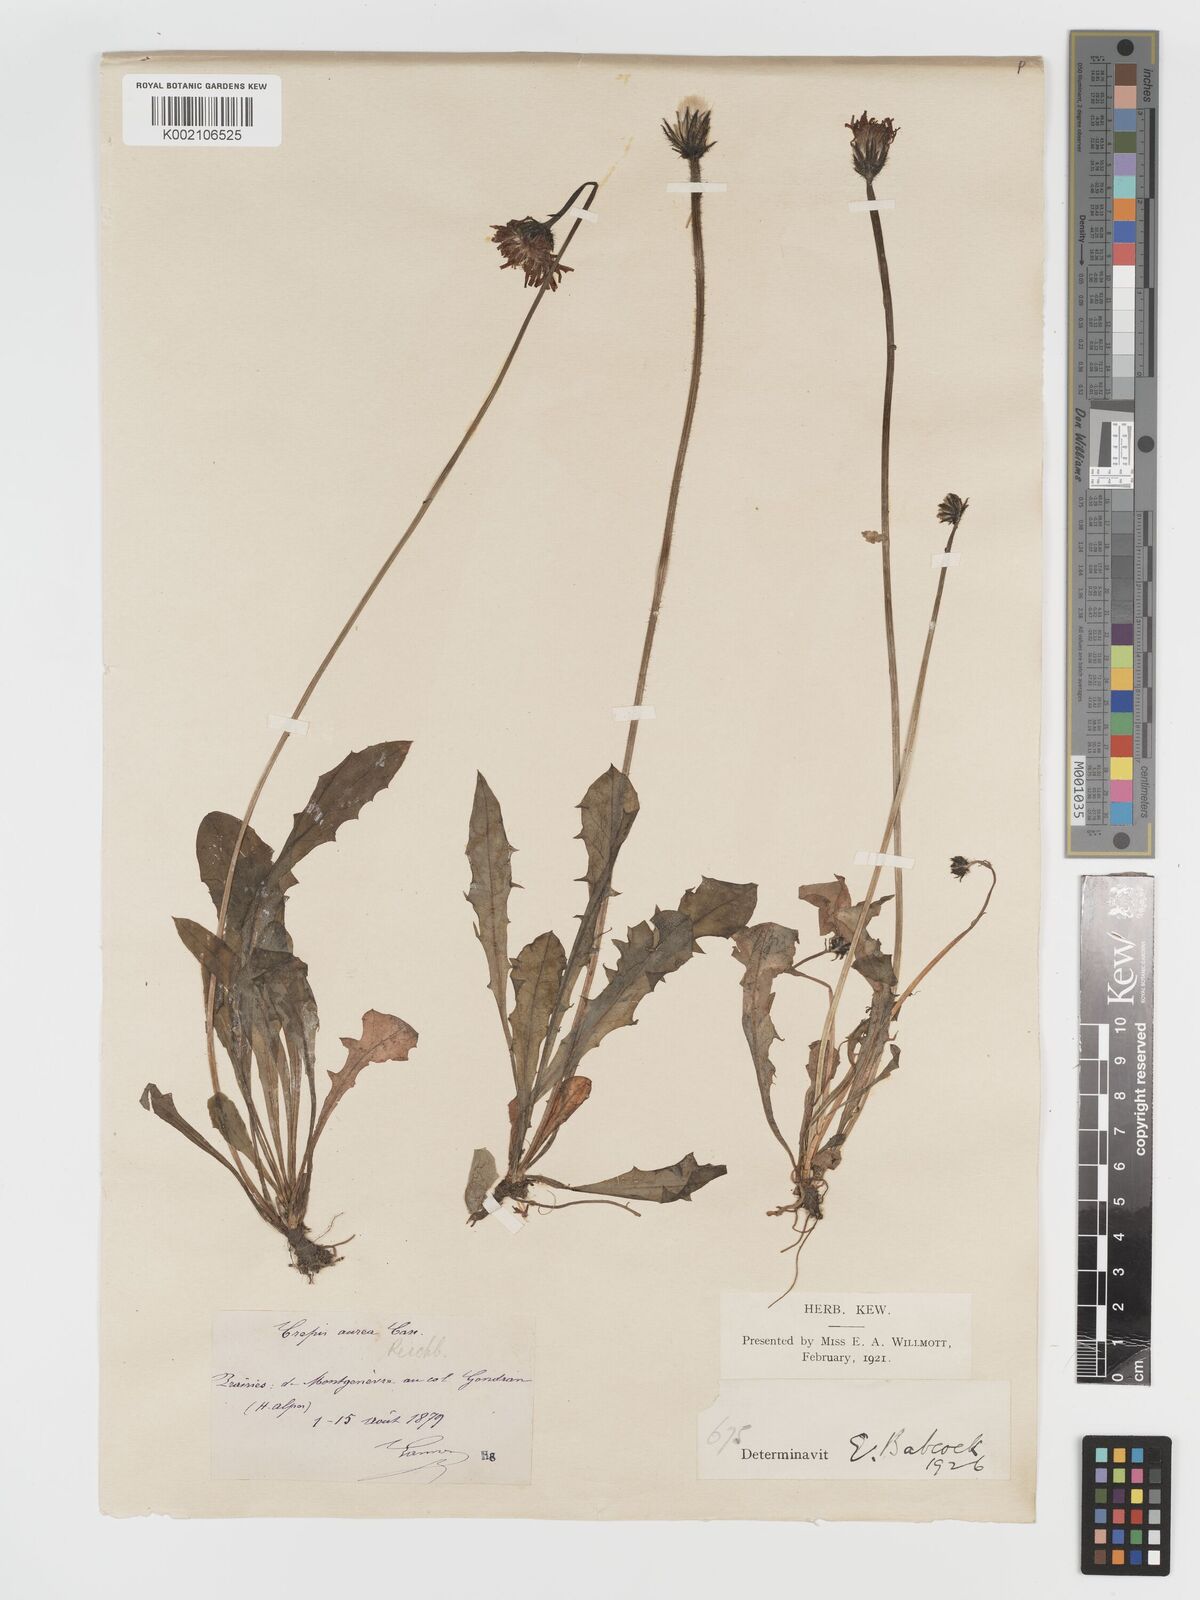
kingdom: Plantae
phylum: Tracheophyta
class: Magnoliopsida
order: Asterales
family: Asteraceae
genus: Crepis
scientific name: Crepis aurea
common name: Golden hawk's-beard
